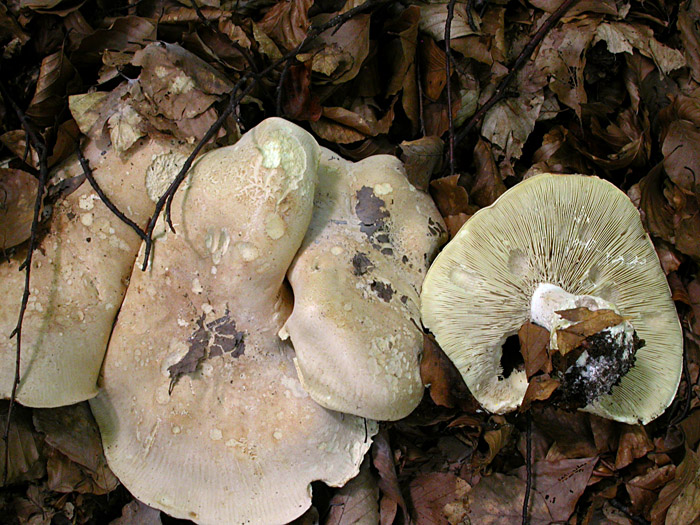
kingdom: Fungi
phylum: Basidiomycota
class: Agaricomycetes
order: Agaricales
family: Tricholomataceae
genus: Leucopaxillus
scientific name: Leucopaxillus tricolor
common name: trefarvet tragtridderhat
